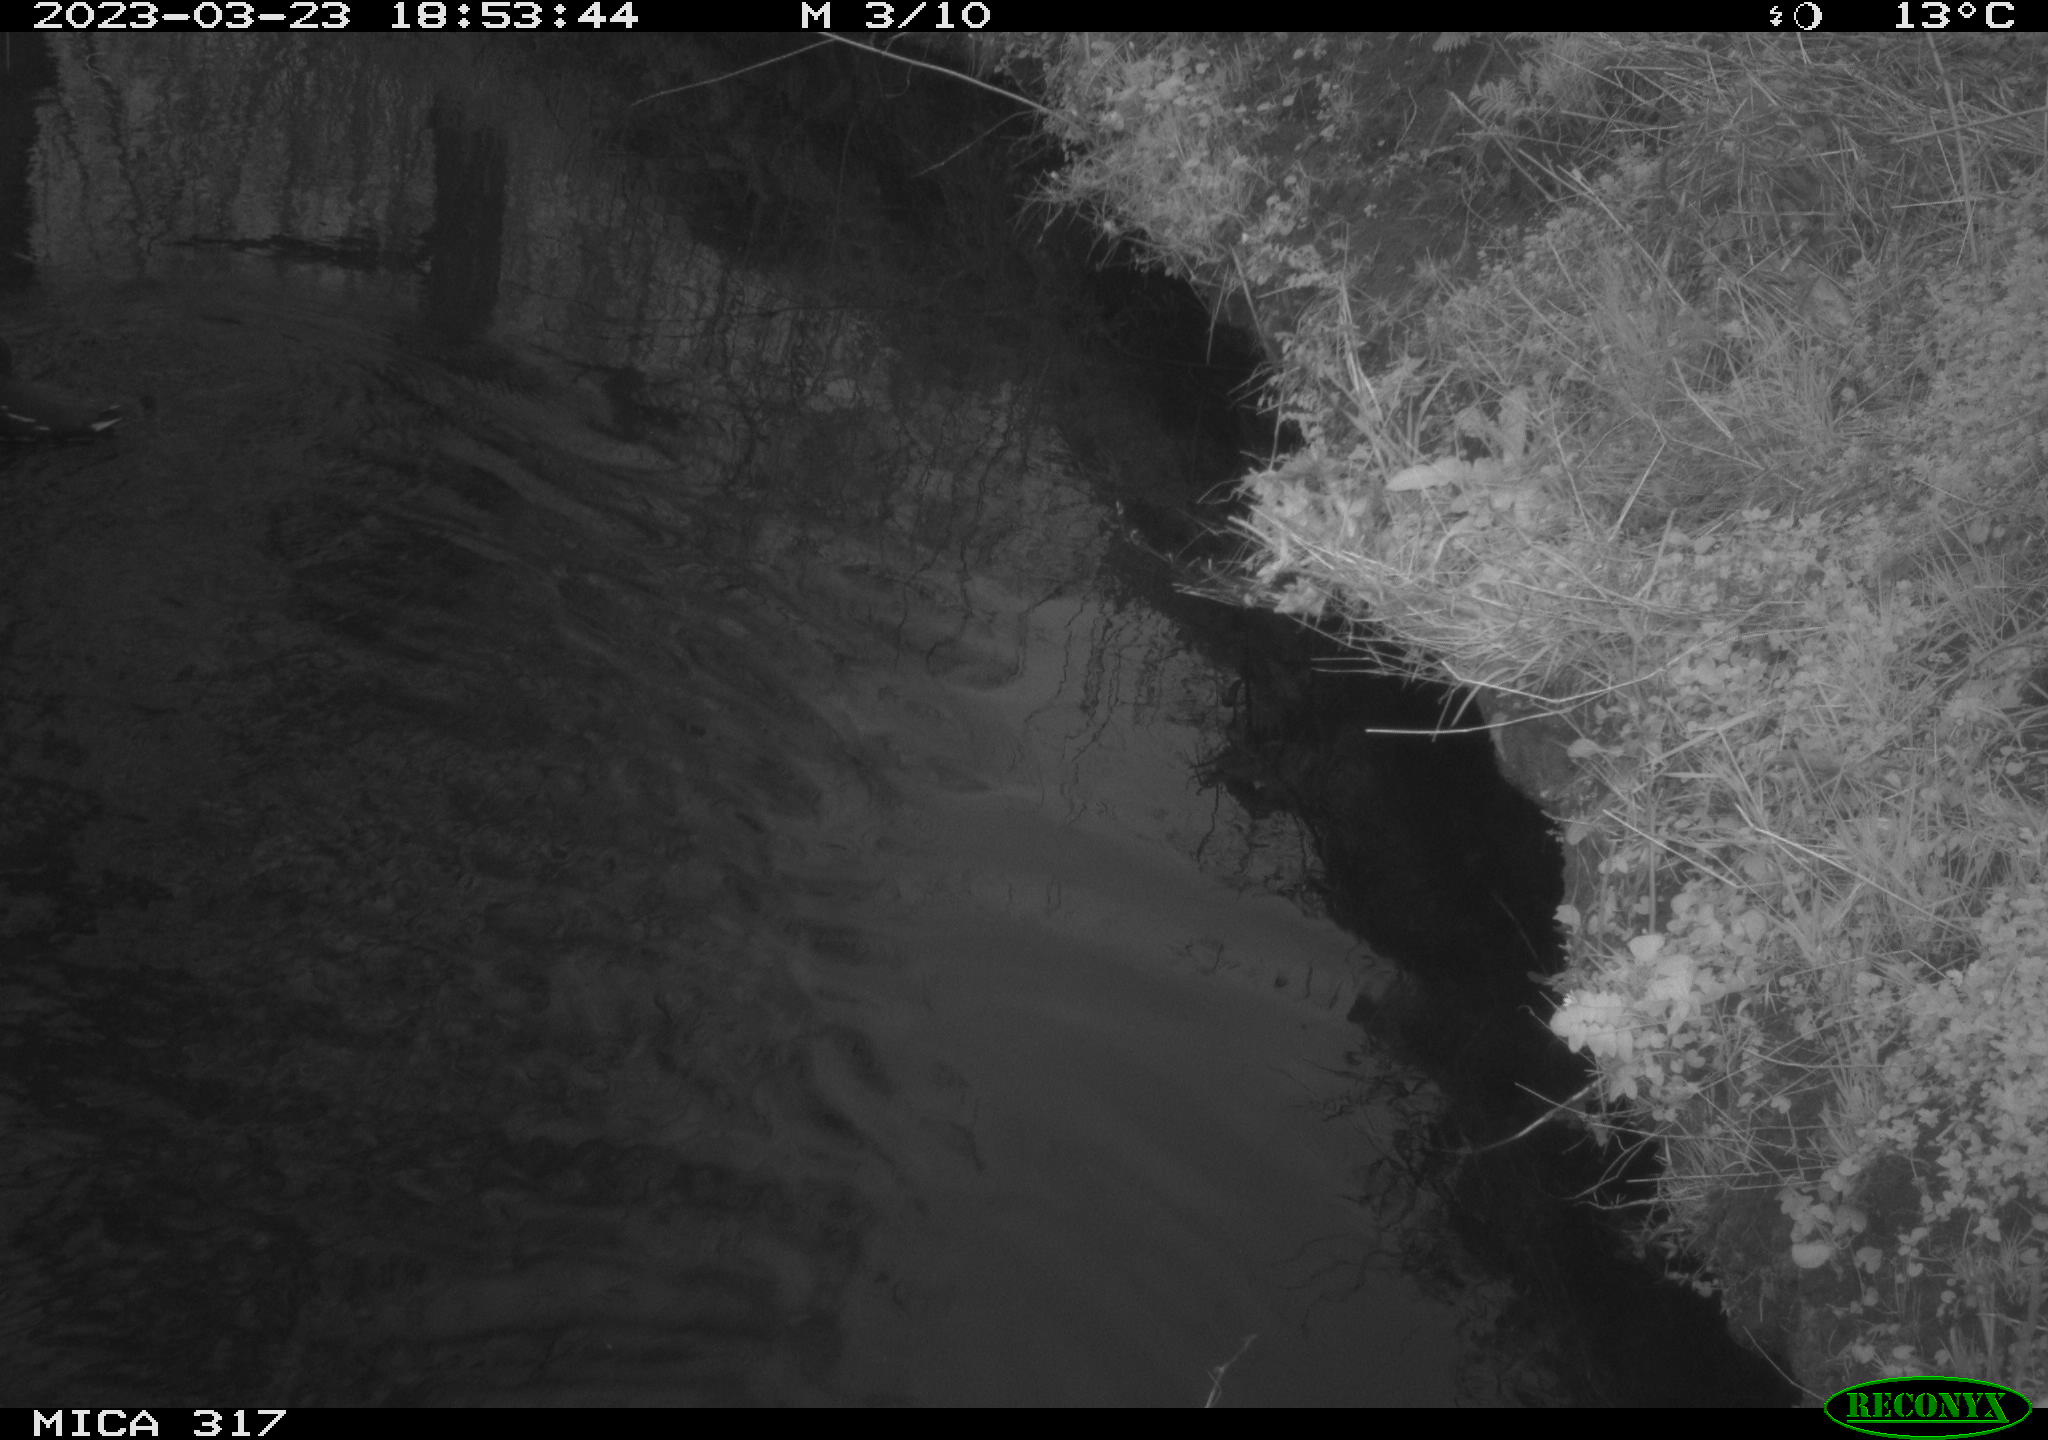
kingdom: Animalia
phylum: Chordata
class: Aves
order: Gruiformes
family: Rallidae
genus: Gallinula
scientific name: Gallinula chloropus
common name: Common moorhen
